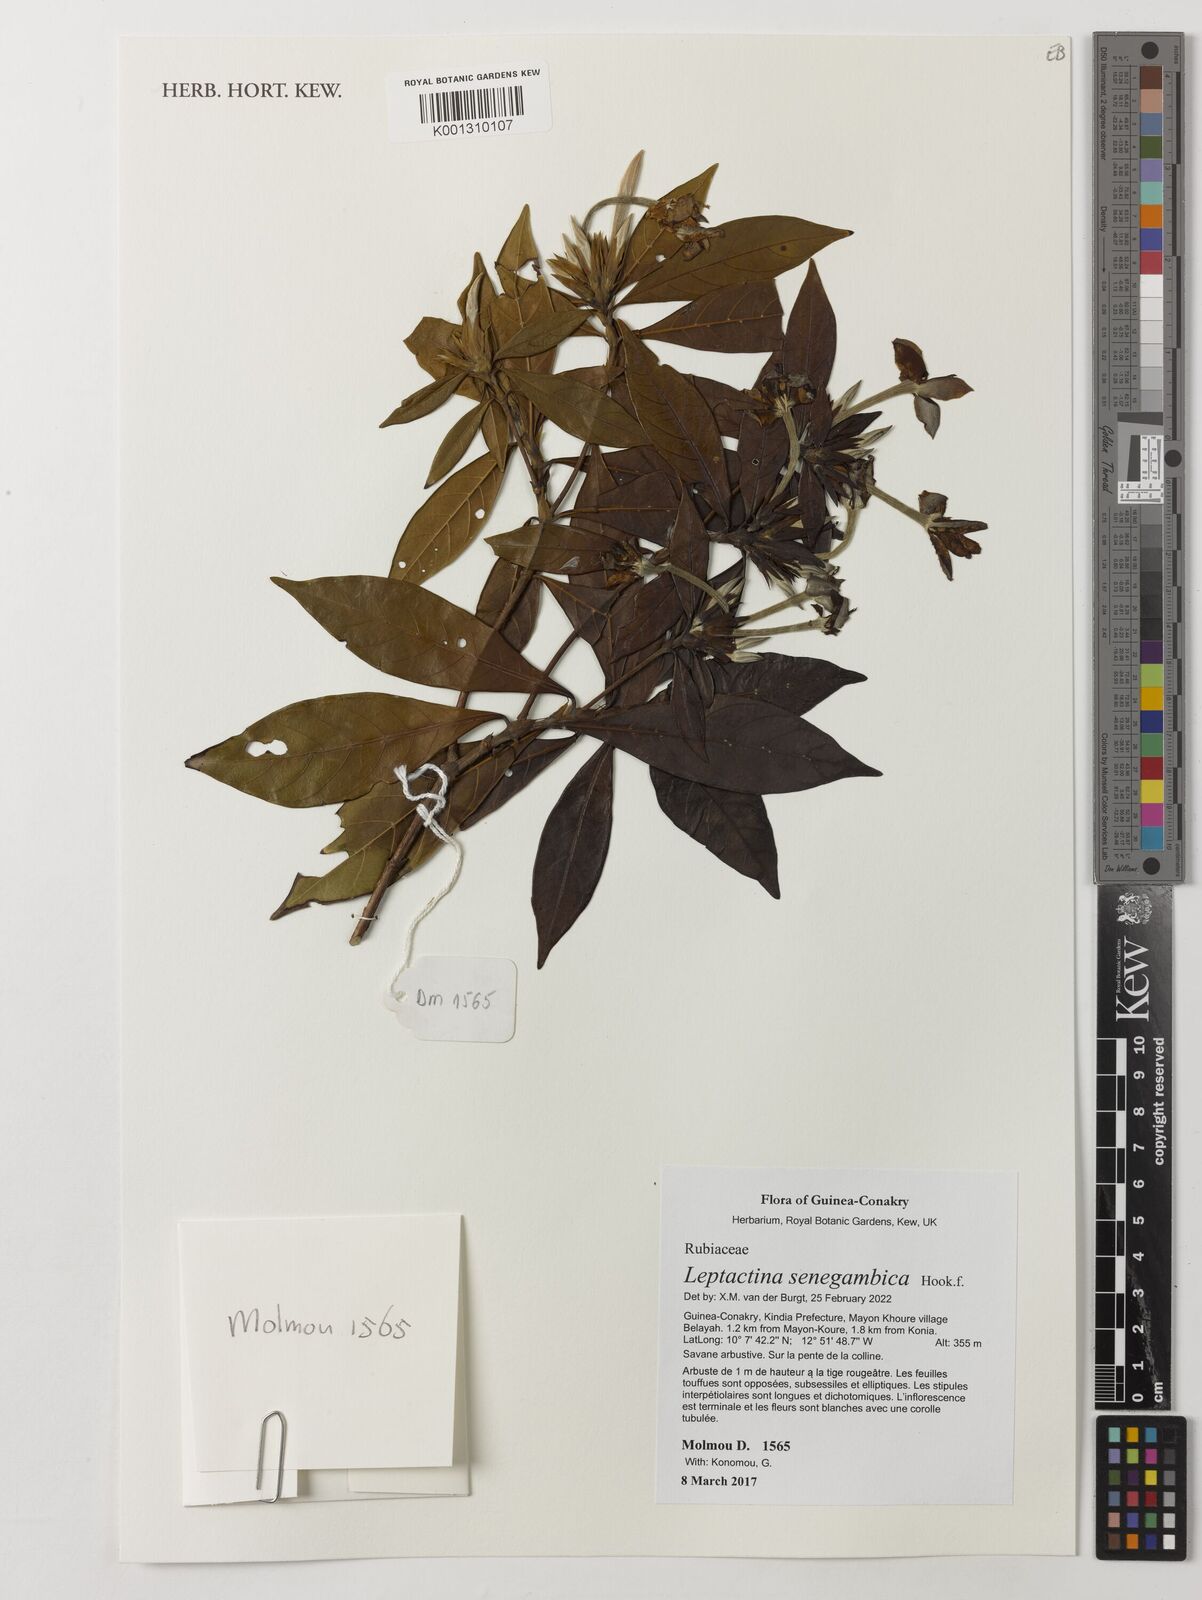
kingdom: Plantae
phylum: Tracheophyta
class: Magnoliopsida
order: Gentianales
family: Rubiaceae
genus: Leptactina
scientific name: Leptactina senegambica
